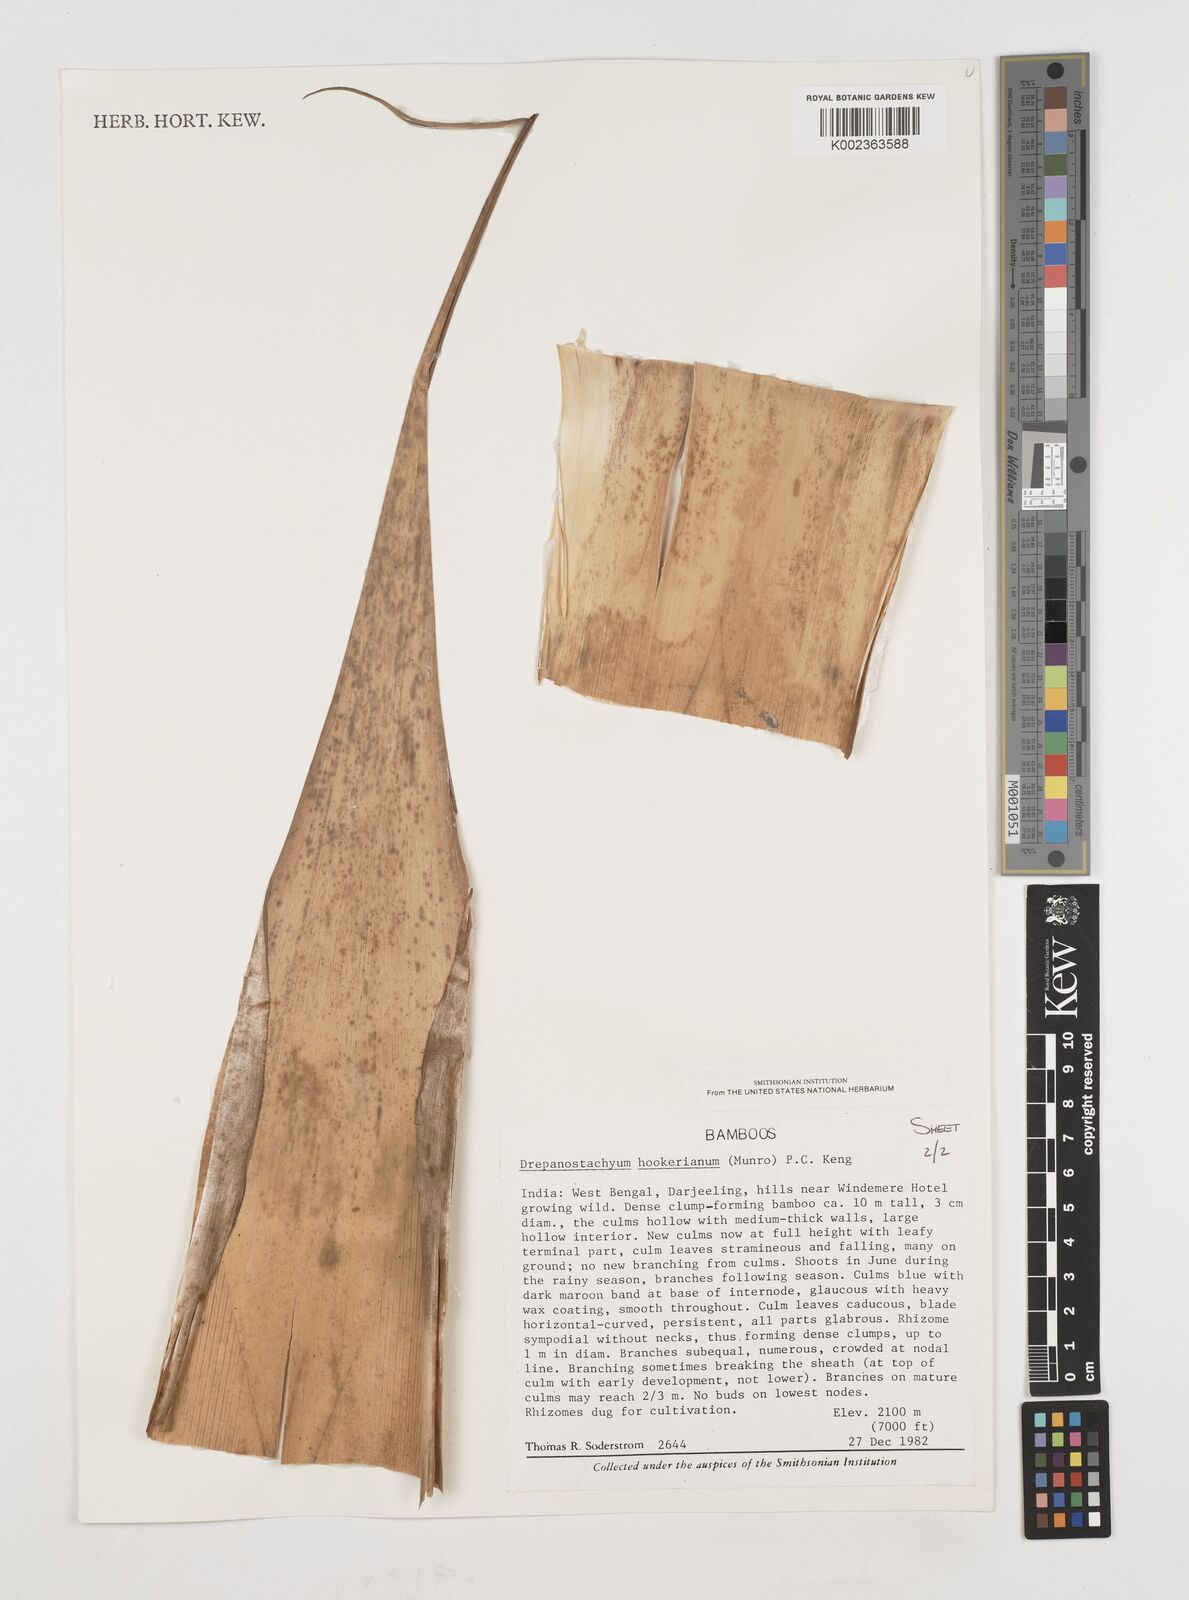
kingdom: Plantae
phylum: Tracheophyta
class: Liliopsida
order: Poales
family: Poaceae
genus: Himalayacalamus
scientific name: Himalayacalamus hookerianus
